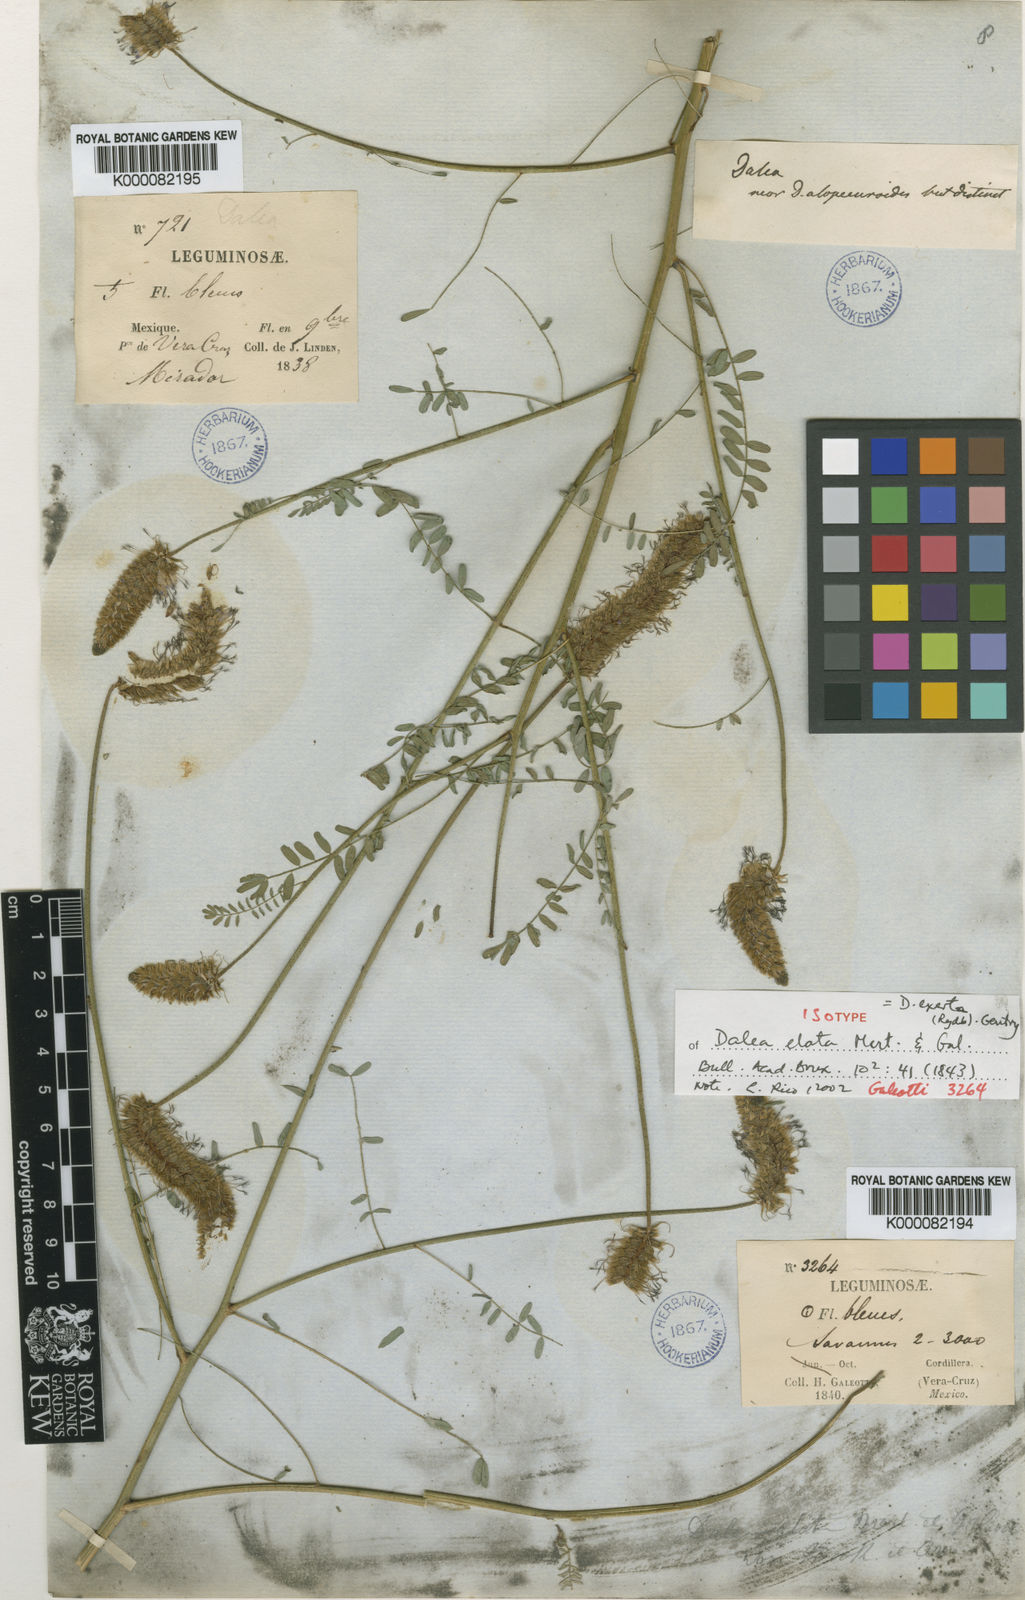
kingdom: Plantae
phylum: Tracheophyta
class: Magnoliopsida
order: Fabales
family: Fabaceae
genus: Dalea
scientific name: Dalea
